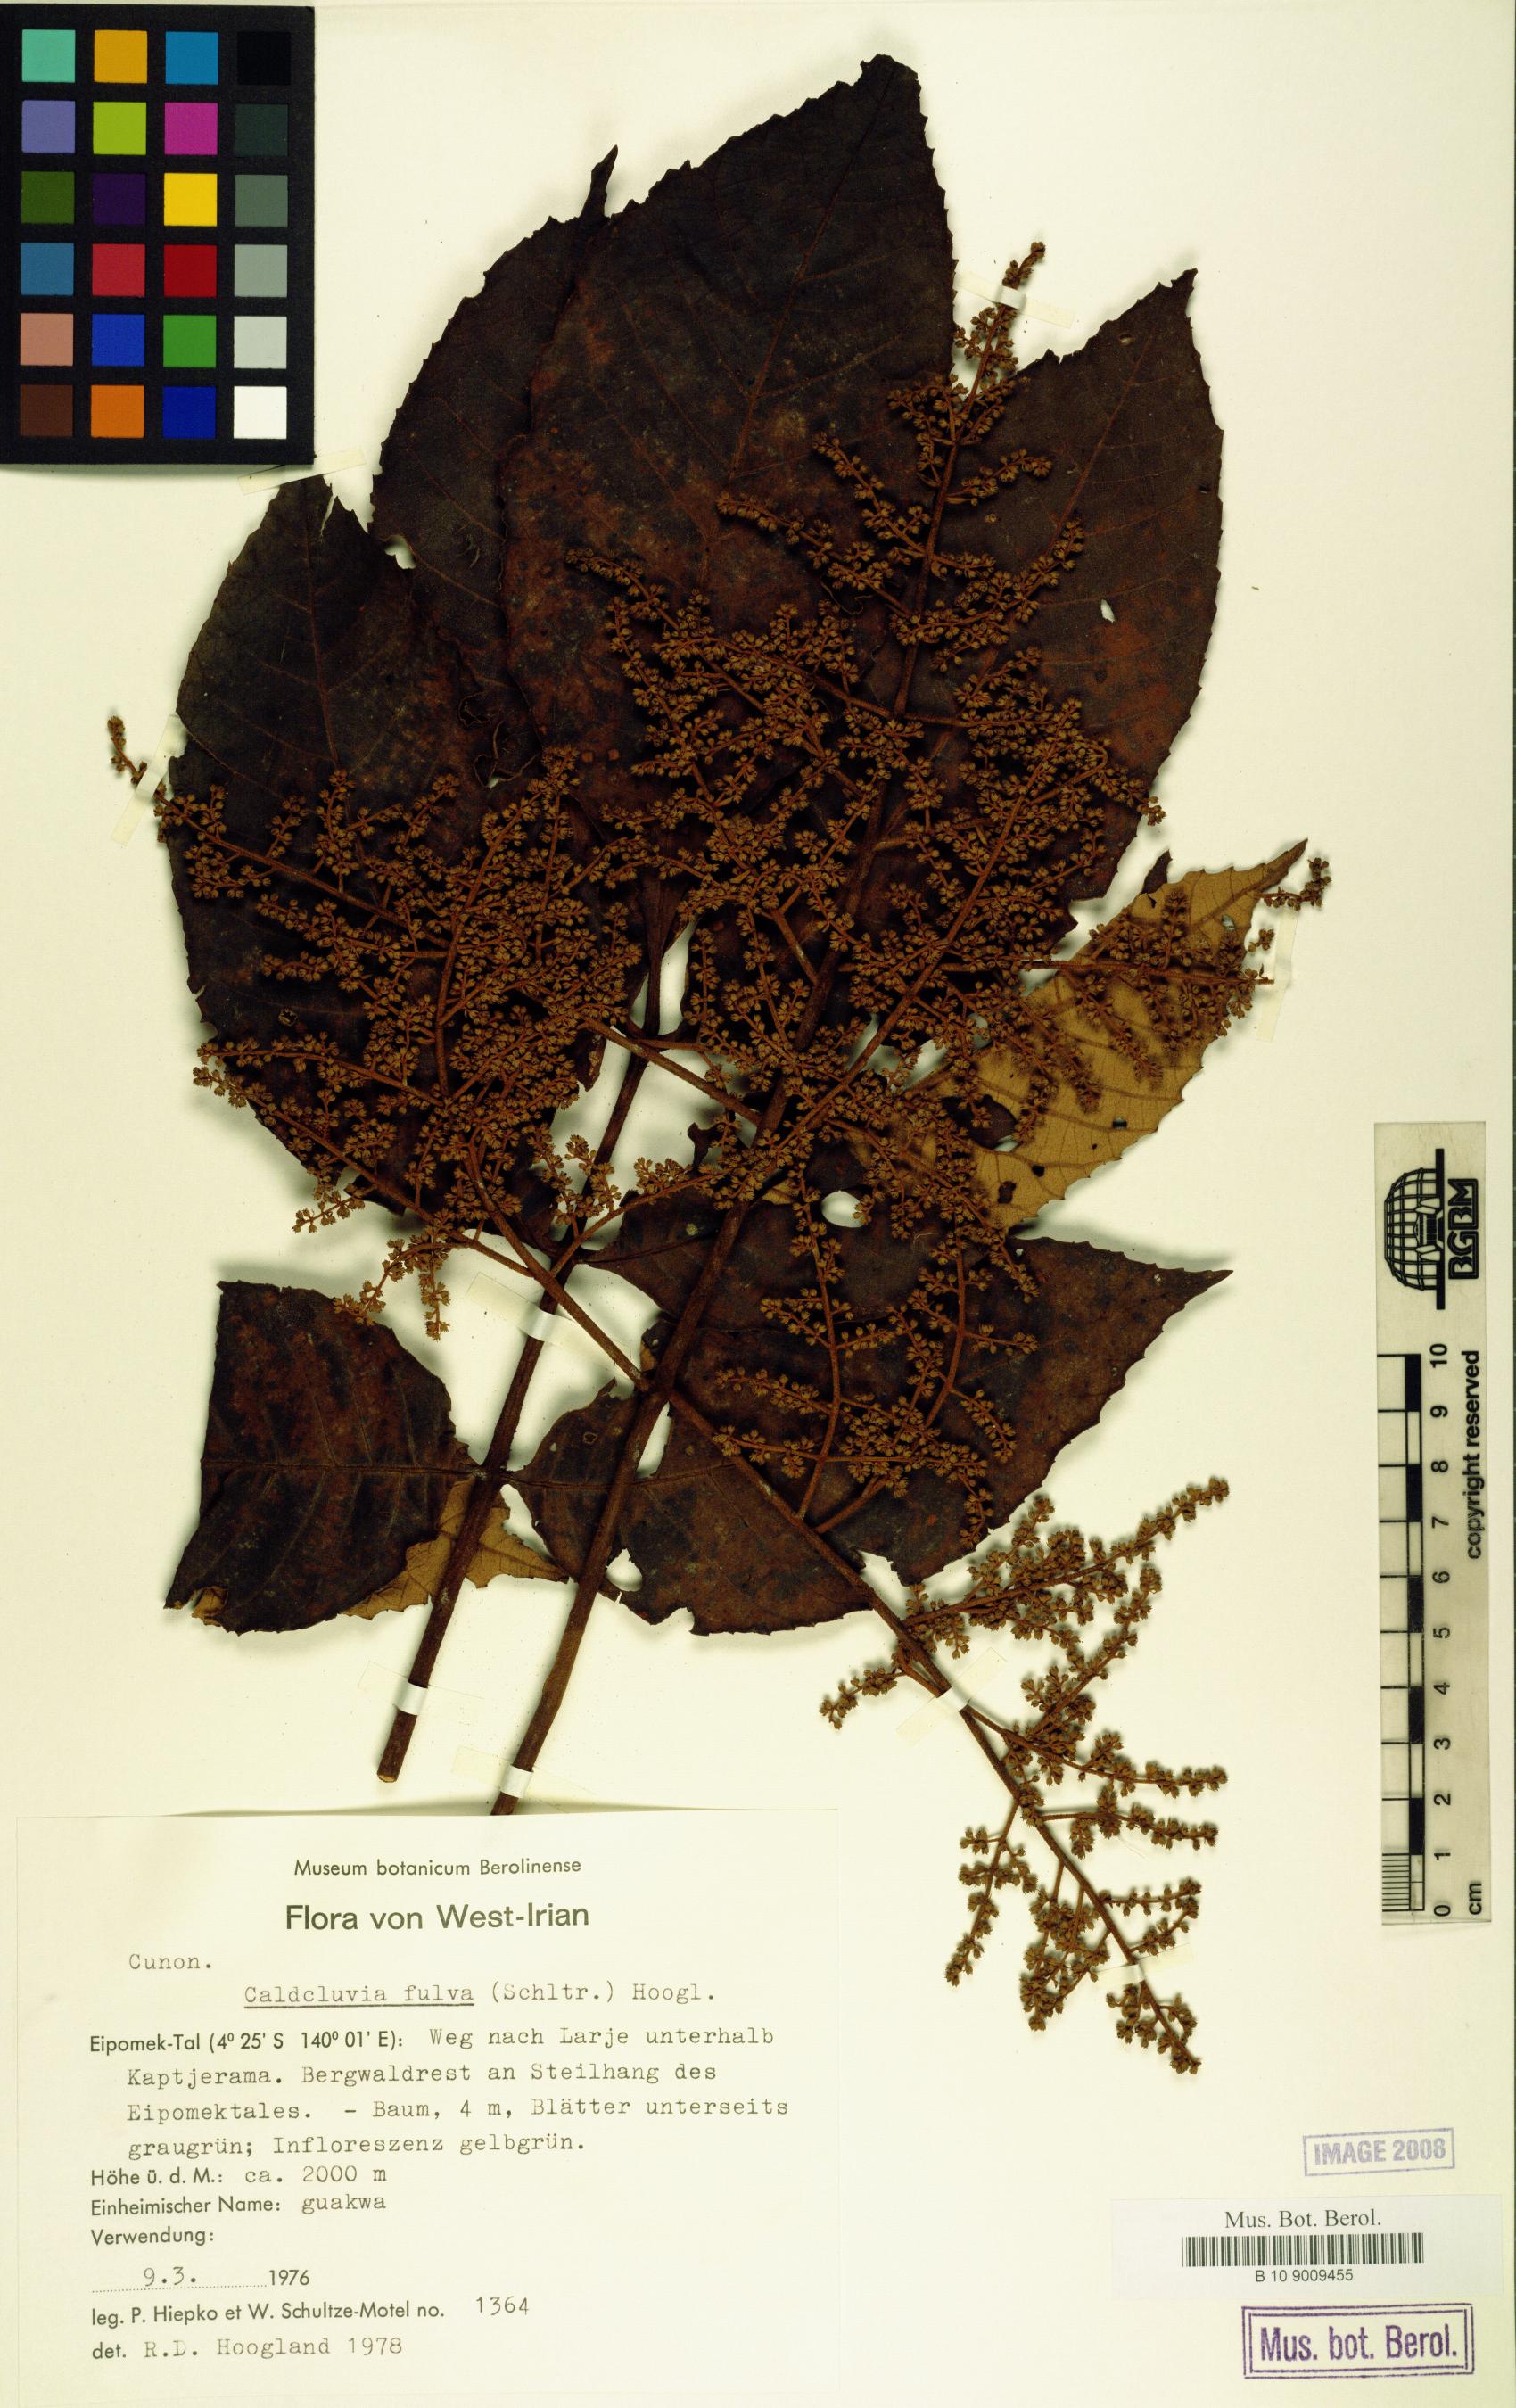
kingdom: Plantae
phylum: Tracheophyta
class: Magnoliopsida
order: Oxalidales
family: Cunoniaceae
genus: Ackama
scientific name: Ackama fulva
